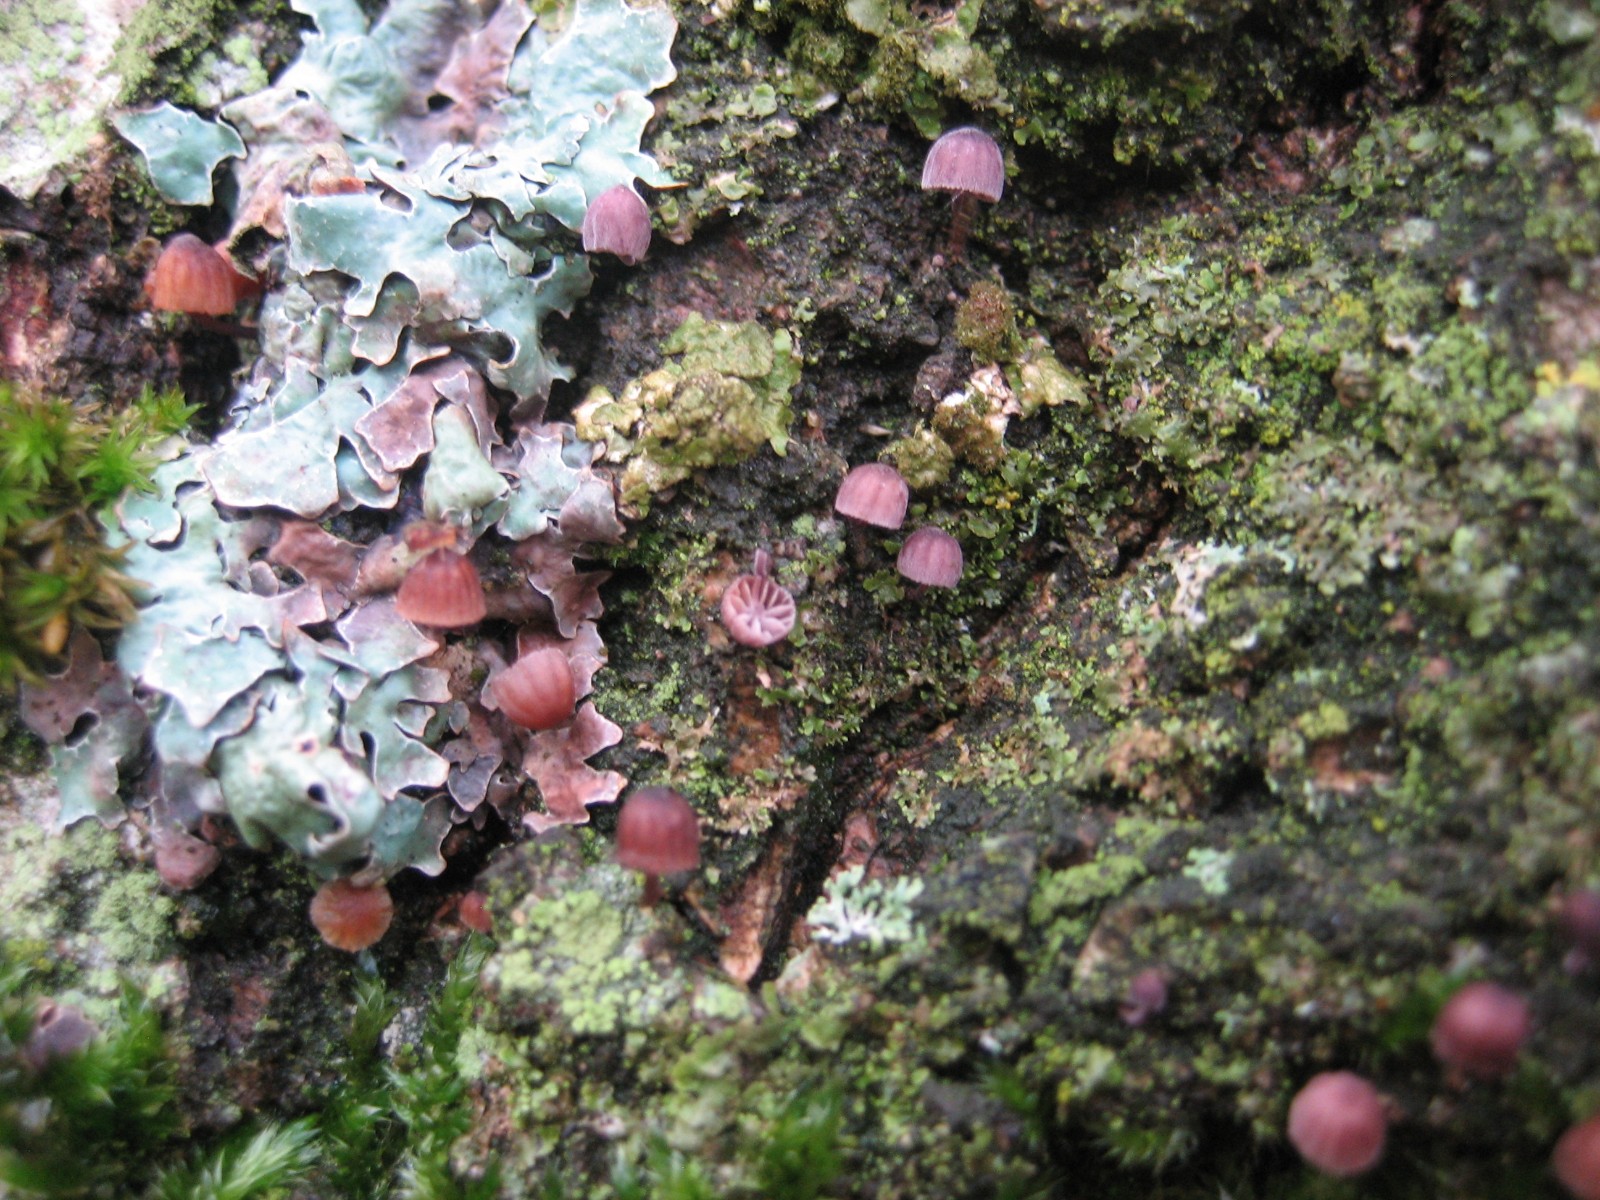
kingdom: Fungi
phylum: Basidiomycota
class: Agaricomycetes
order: Agaricales
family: Mycenaceae
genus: Mycena
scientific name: Mycena meliigena
